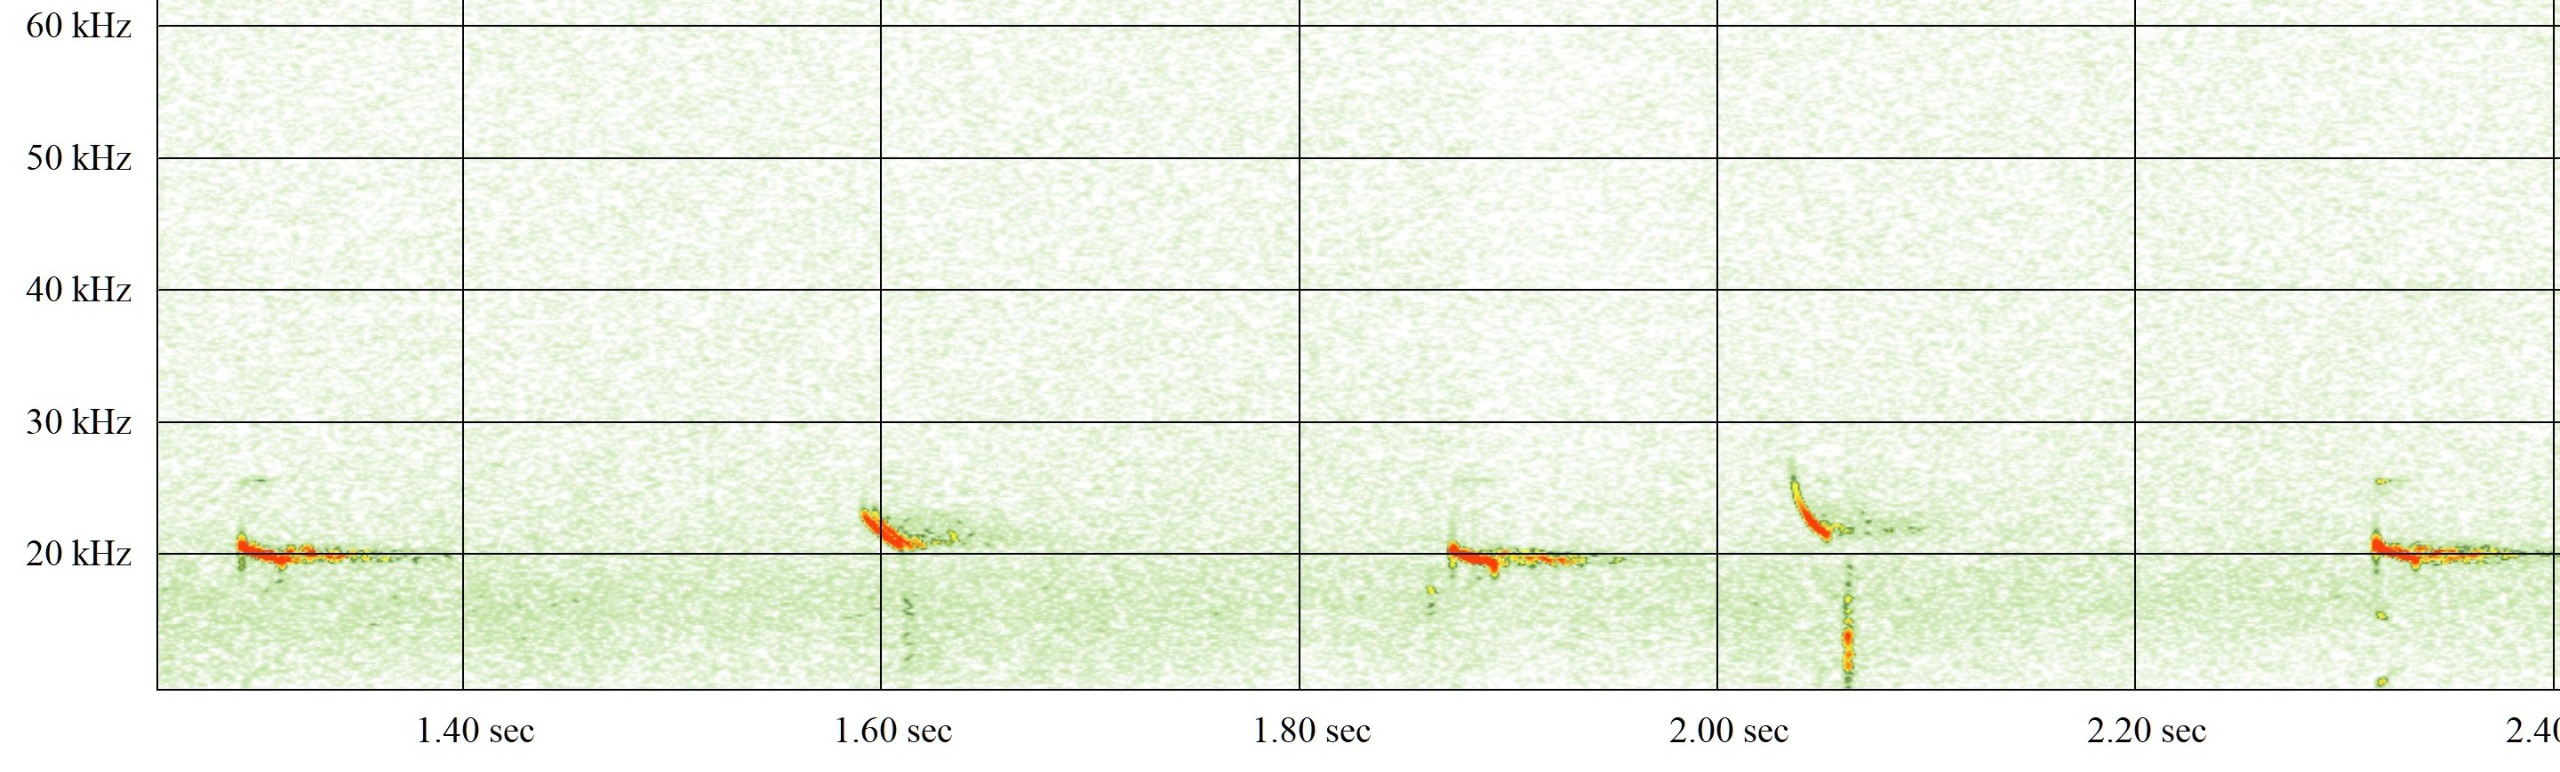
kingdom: Animalia
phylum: Chordata
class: Mammalia
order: Chiroptera
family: Vespertilionidae
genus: Nyctalus
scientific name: Nyctalus noctula
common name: Brunflagermus
